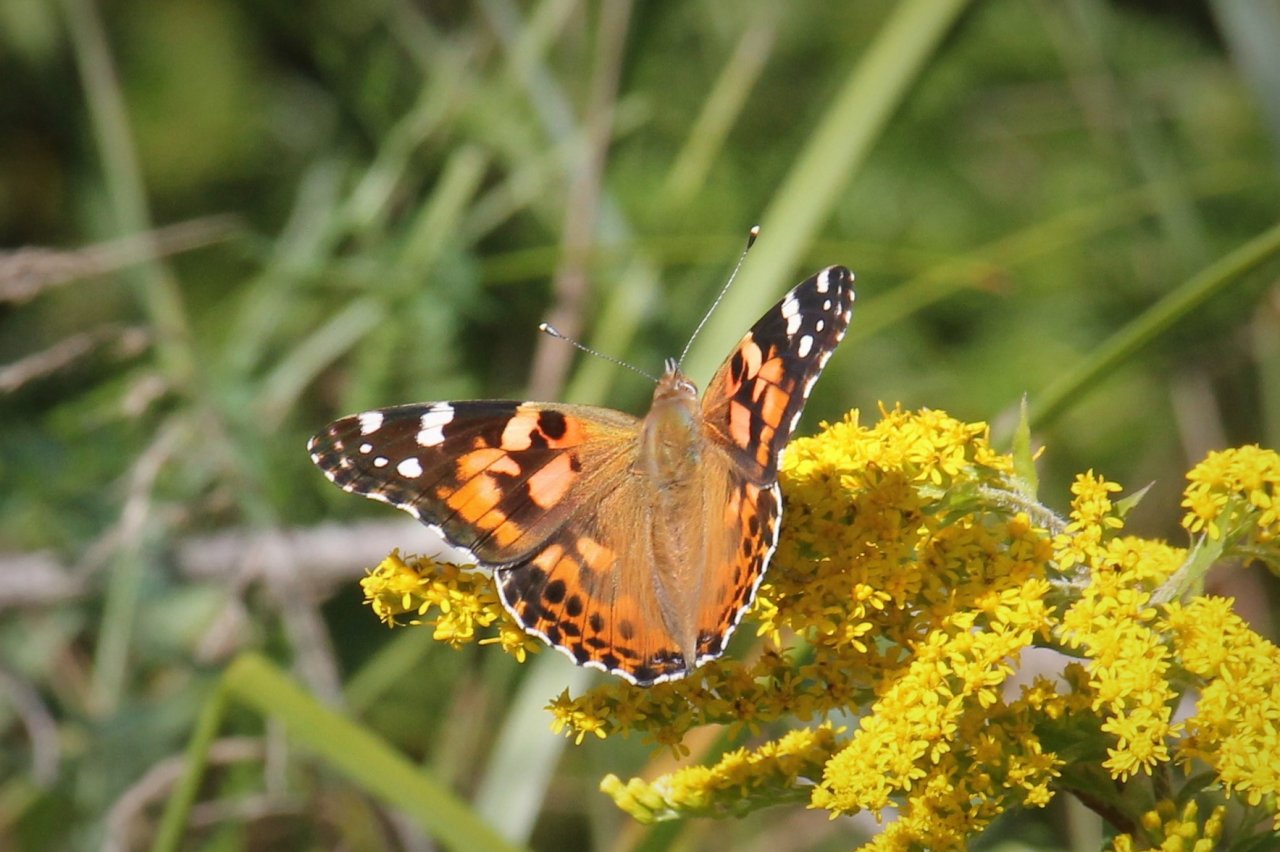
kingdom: Animalia
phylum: Arthropoda
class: Insecta
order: Lepidoptera
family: Nymphalidae
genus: Vanessa
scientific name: Vanessa cardui
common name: Painted Lady
